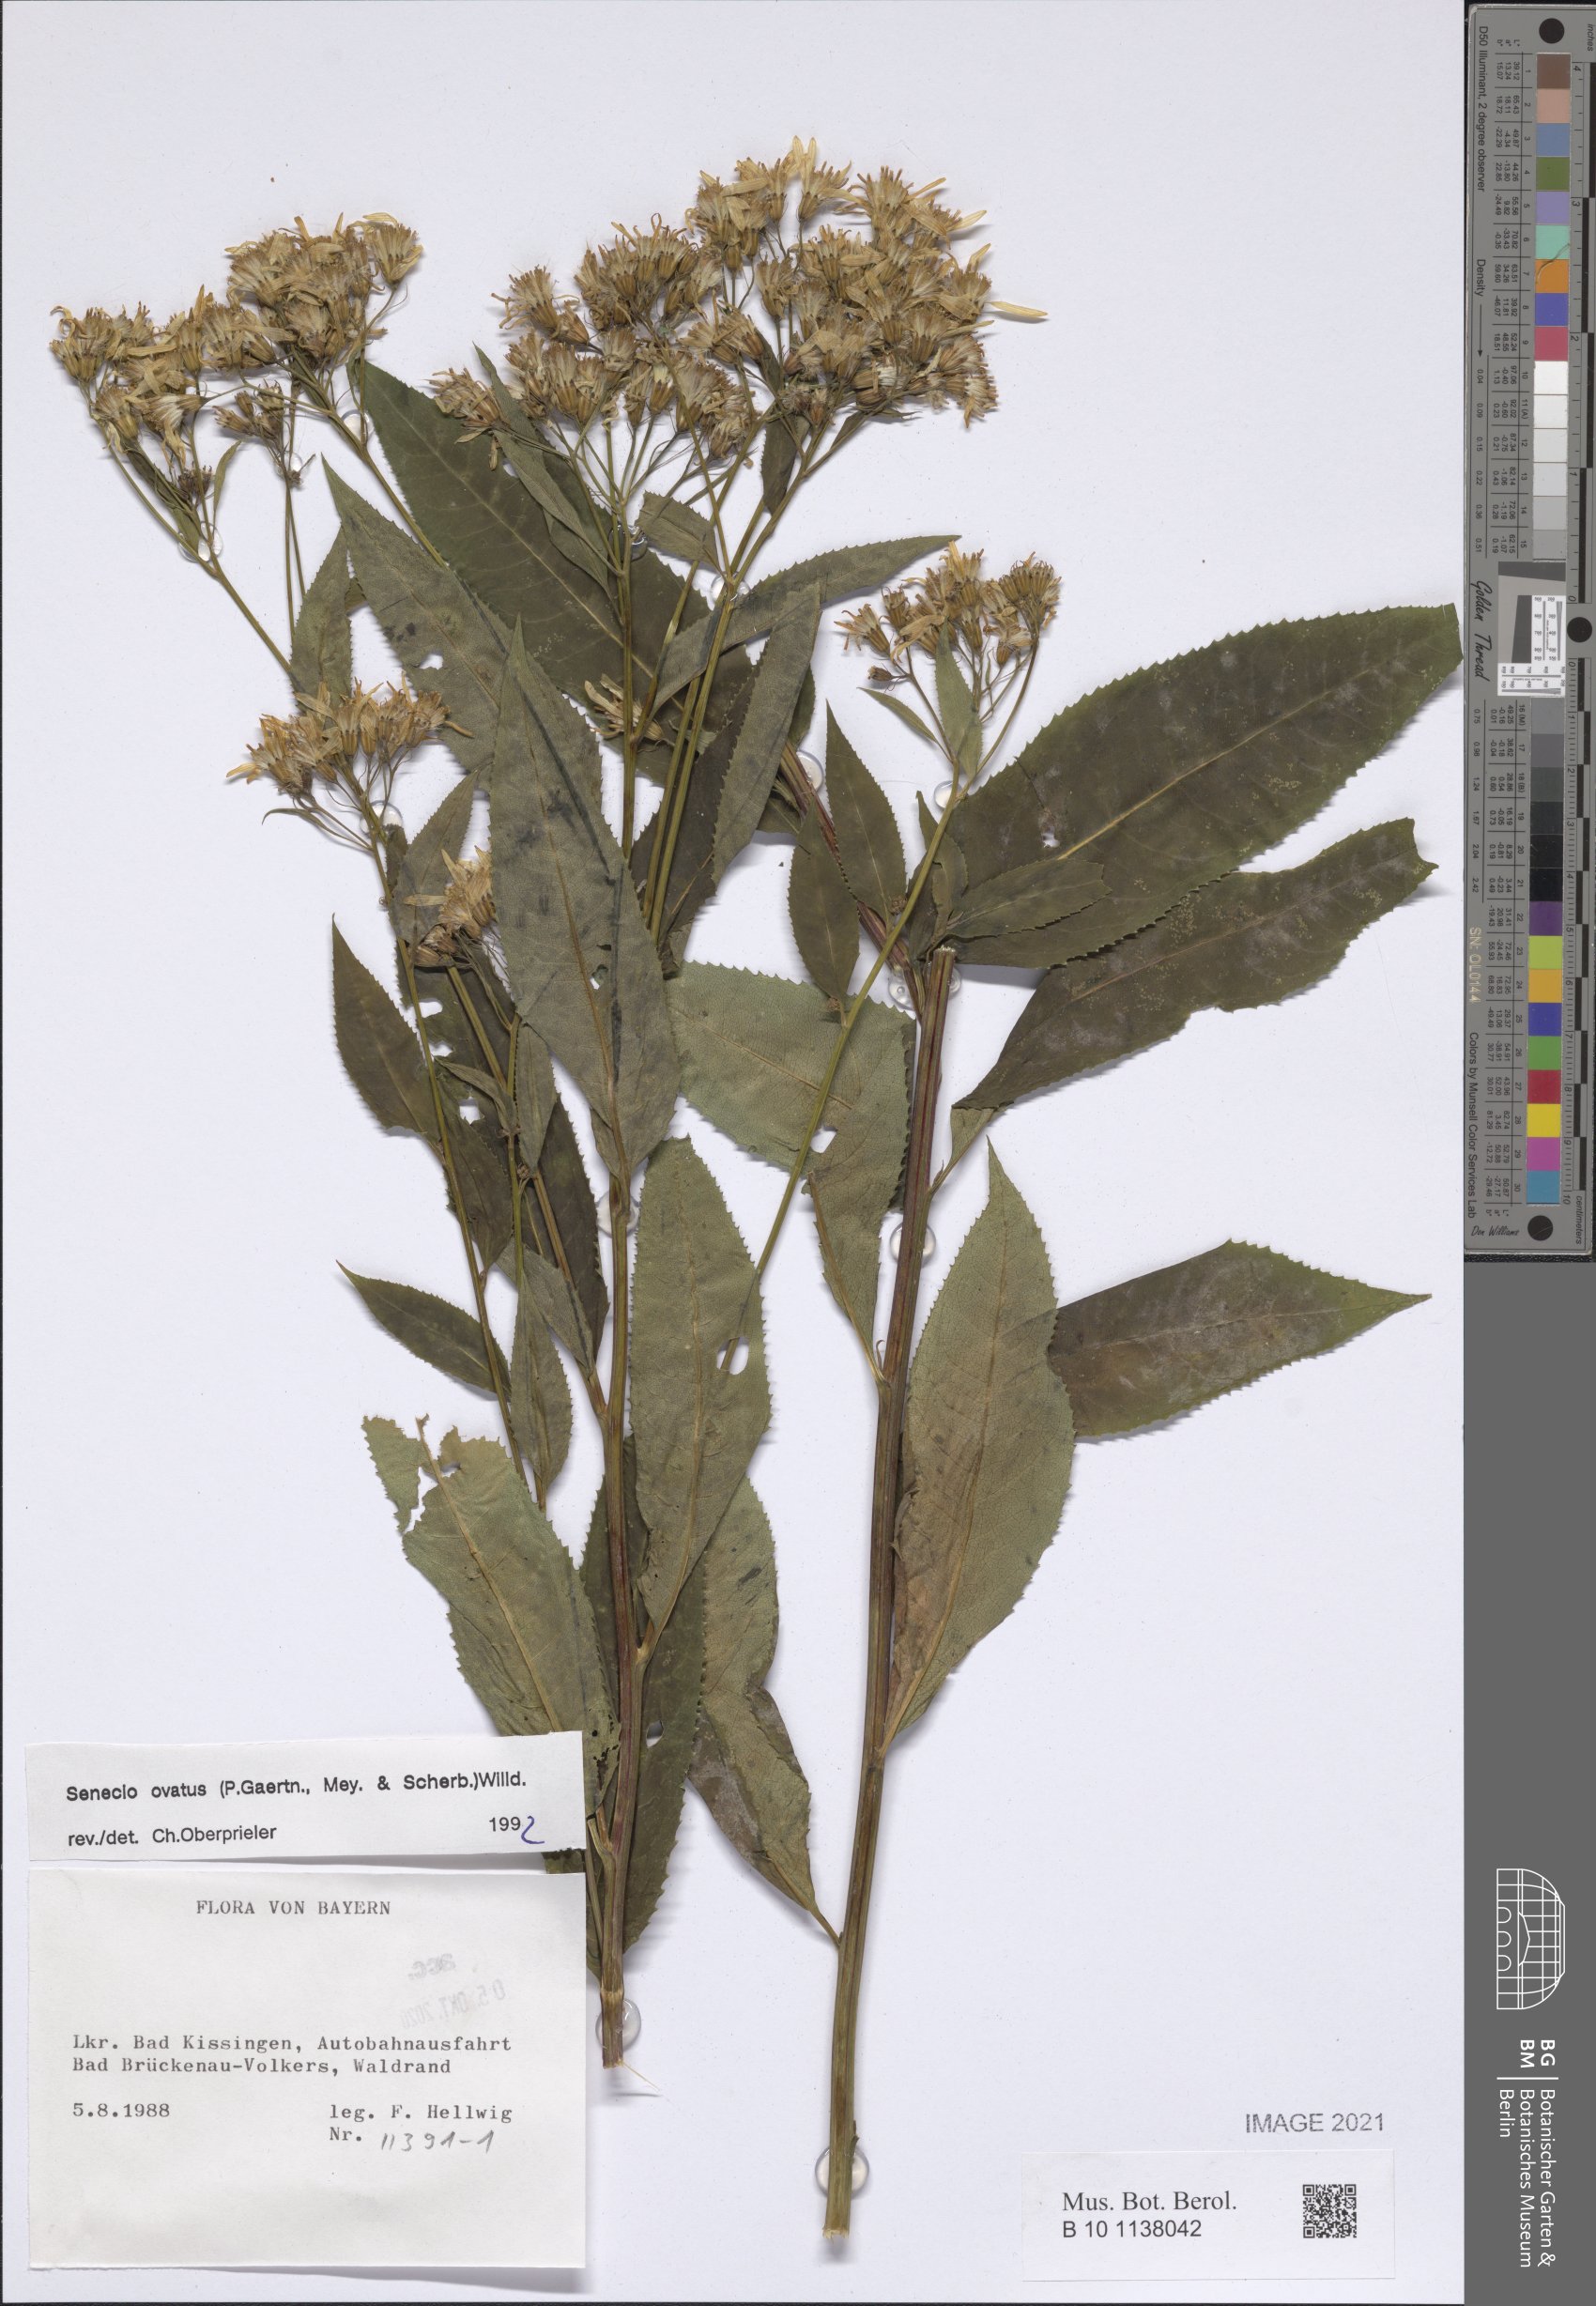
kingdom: Plantae
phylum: Tracheophyta
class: Magnoliopsida
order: Asterales
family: Asteraceae
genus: Senecio
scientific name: Senecio ovatus
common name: Wood ragwort
